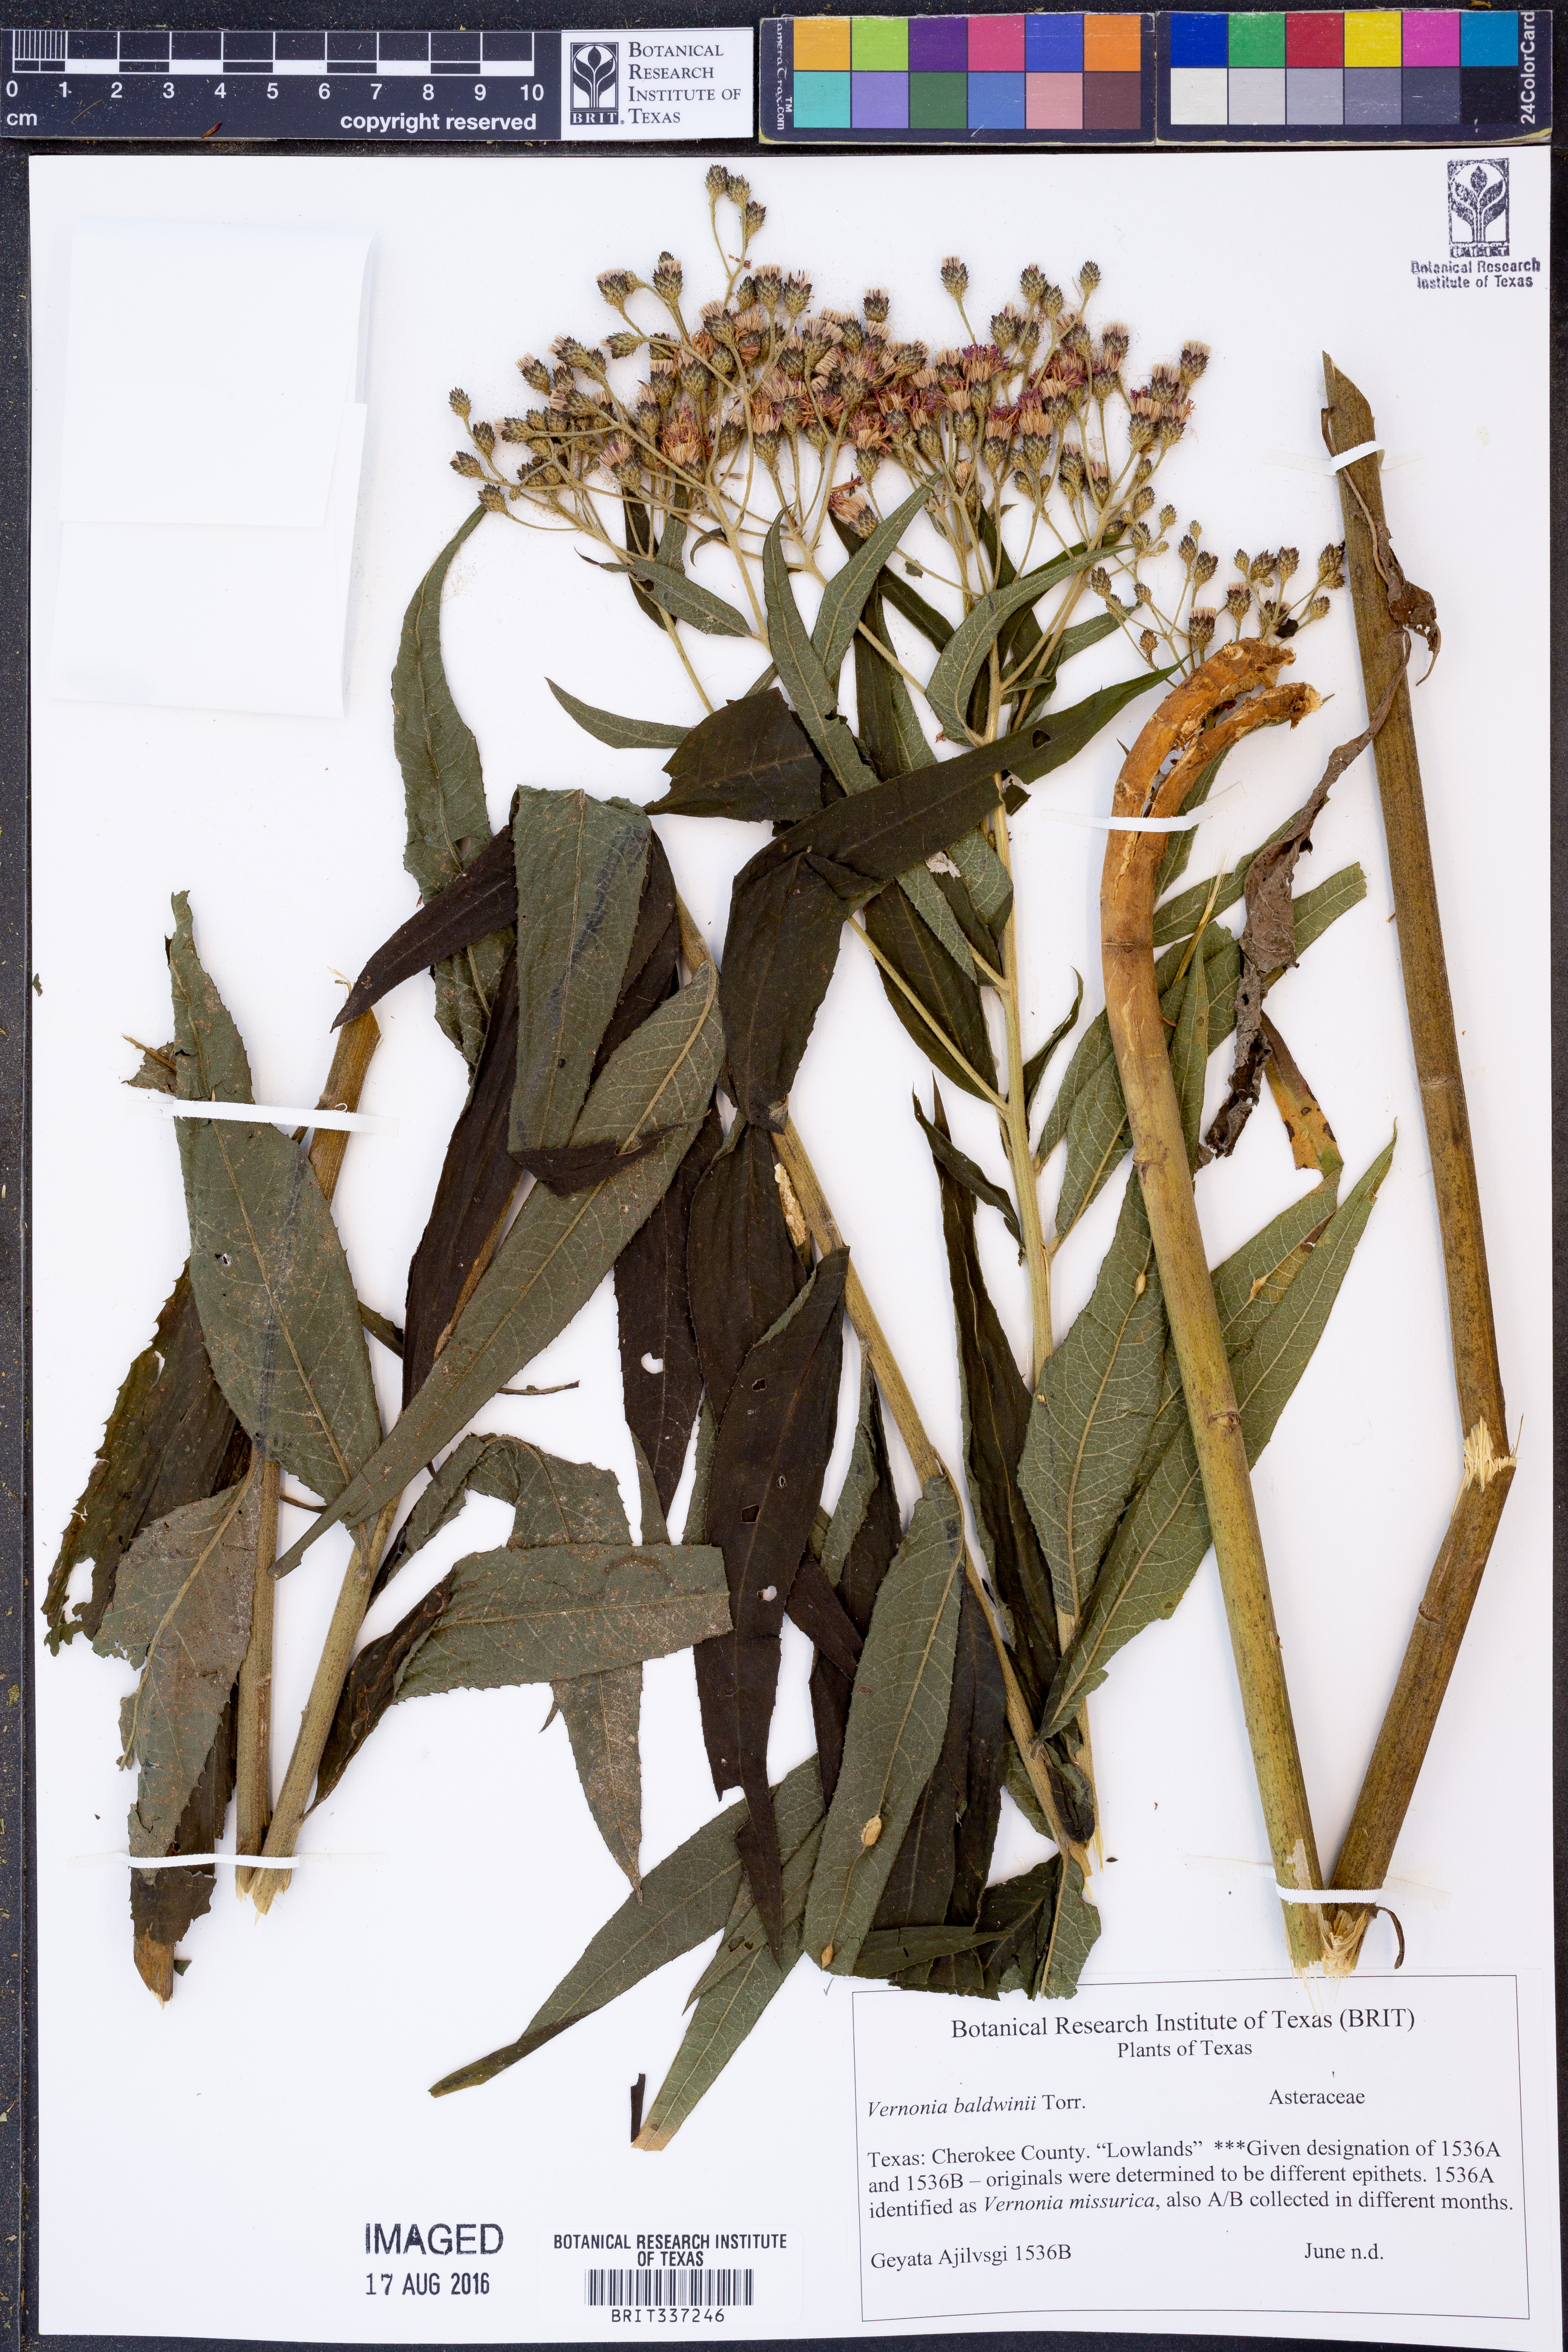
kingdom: Plantae
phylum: Tracheophyta
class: Magnoliopsida
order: Asterales
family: Asteraceae
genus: Vernonia
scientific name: Vernonia baldwinii
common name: Western ironweed
